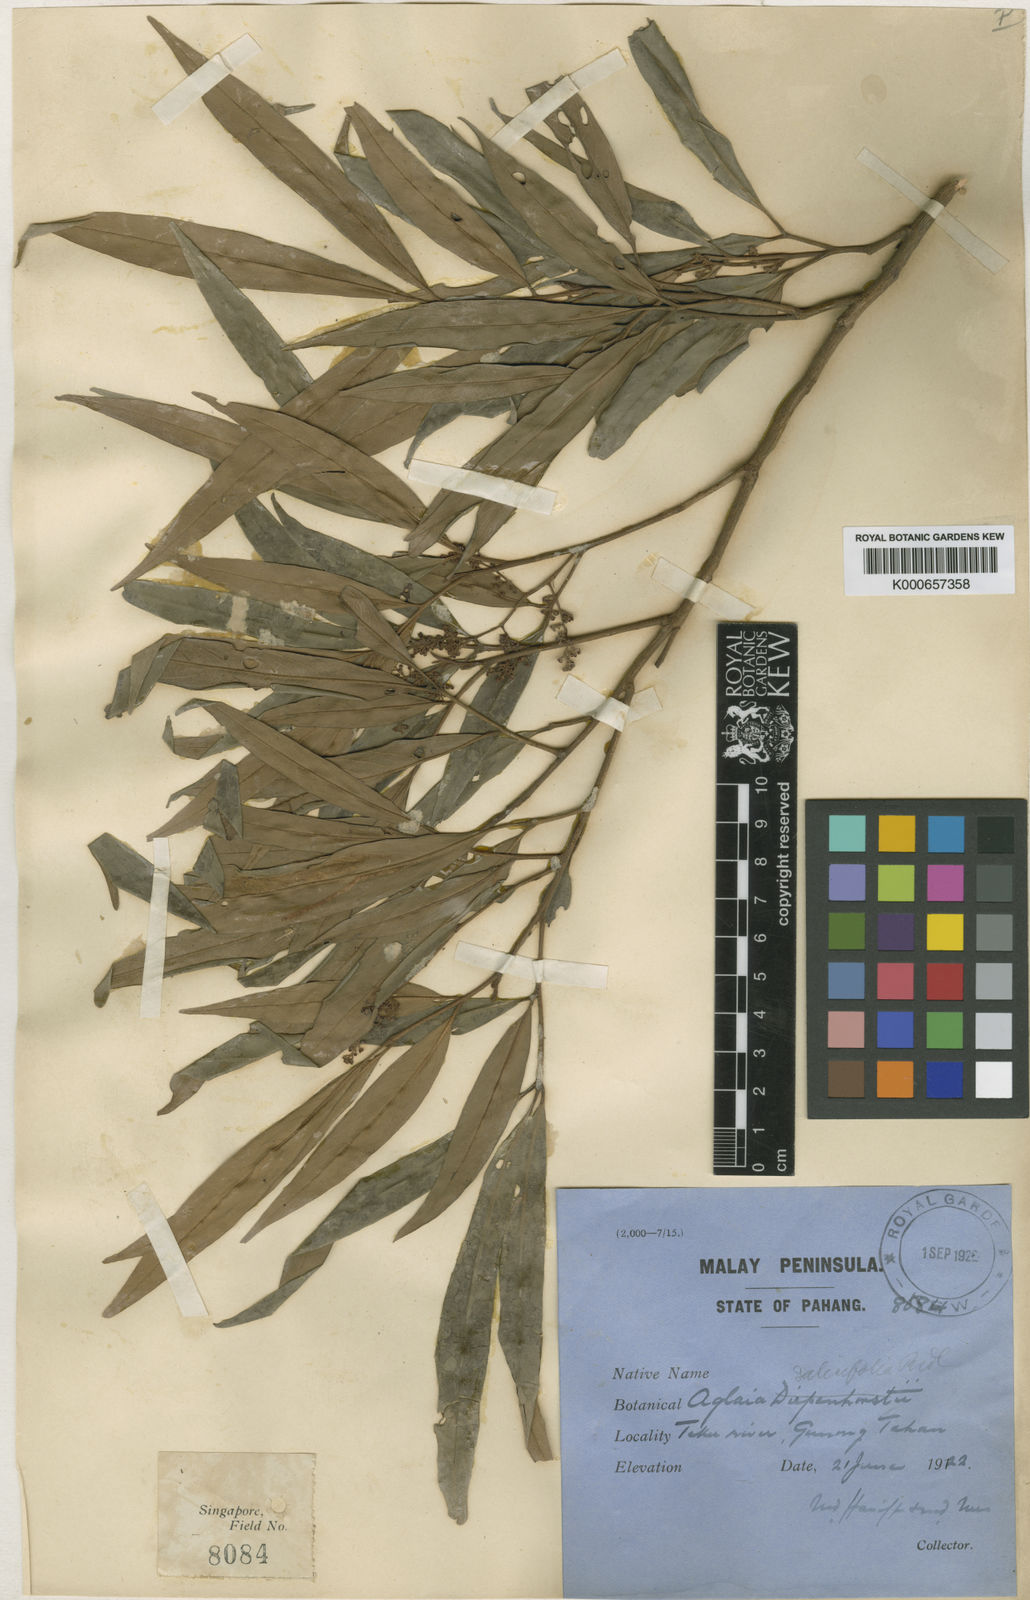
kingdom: Plantae
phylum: Tracheophyta
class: Magnoliopsida
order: Sapindales
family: Meliaceae
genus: Aglaia
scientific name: Aglaia
